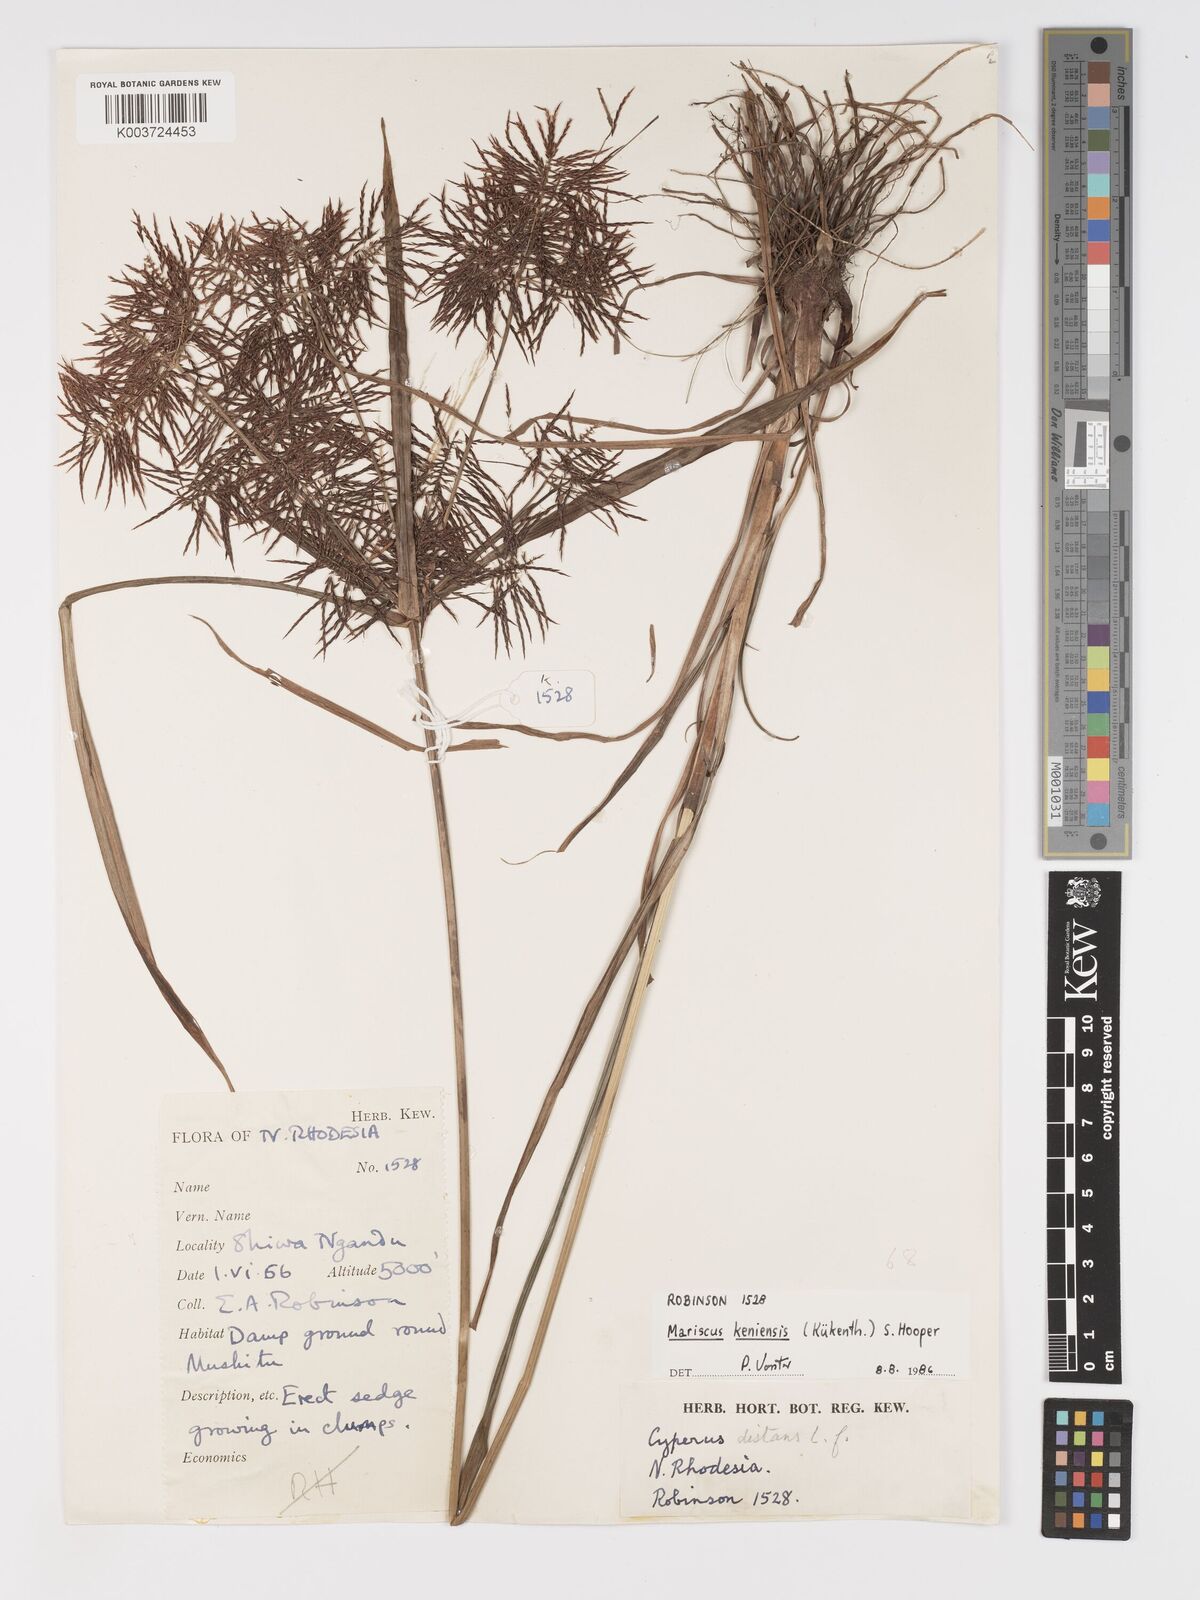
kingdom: Plantae
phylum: Tracheophyta
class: Liliopsida
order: Poales
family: Cyperaceae
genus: Cyperus
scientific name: Cyperus
